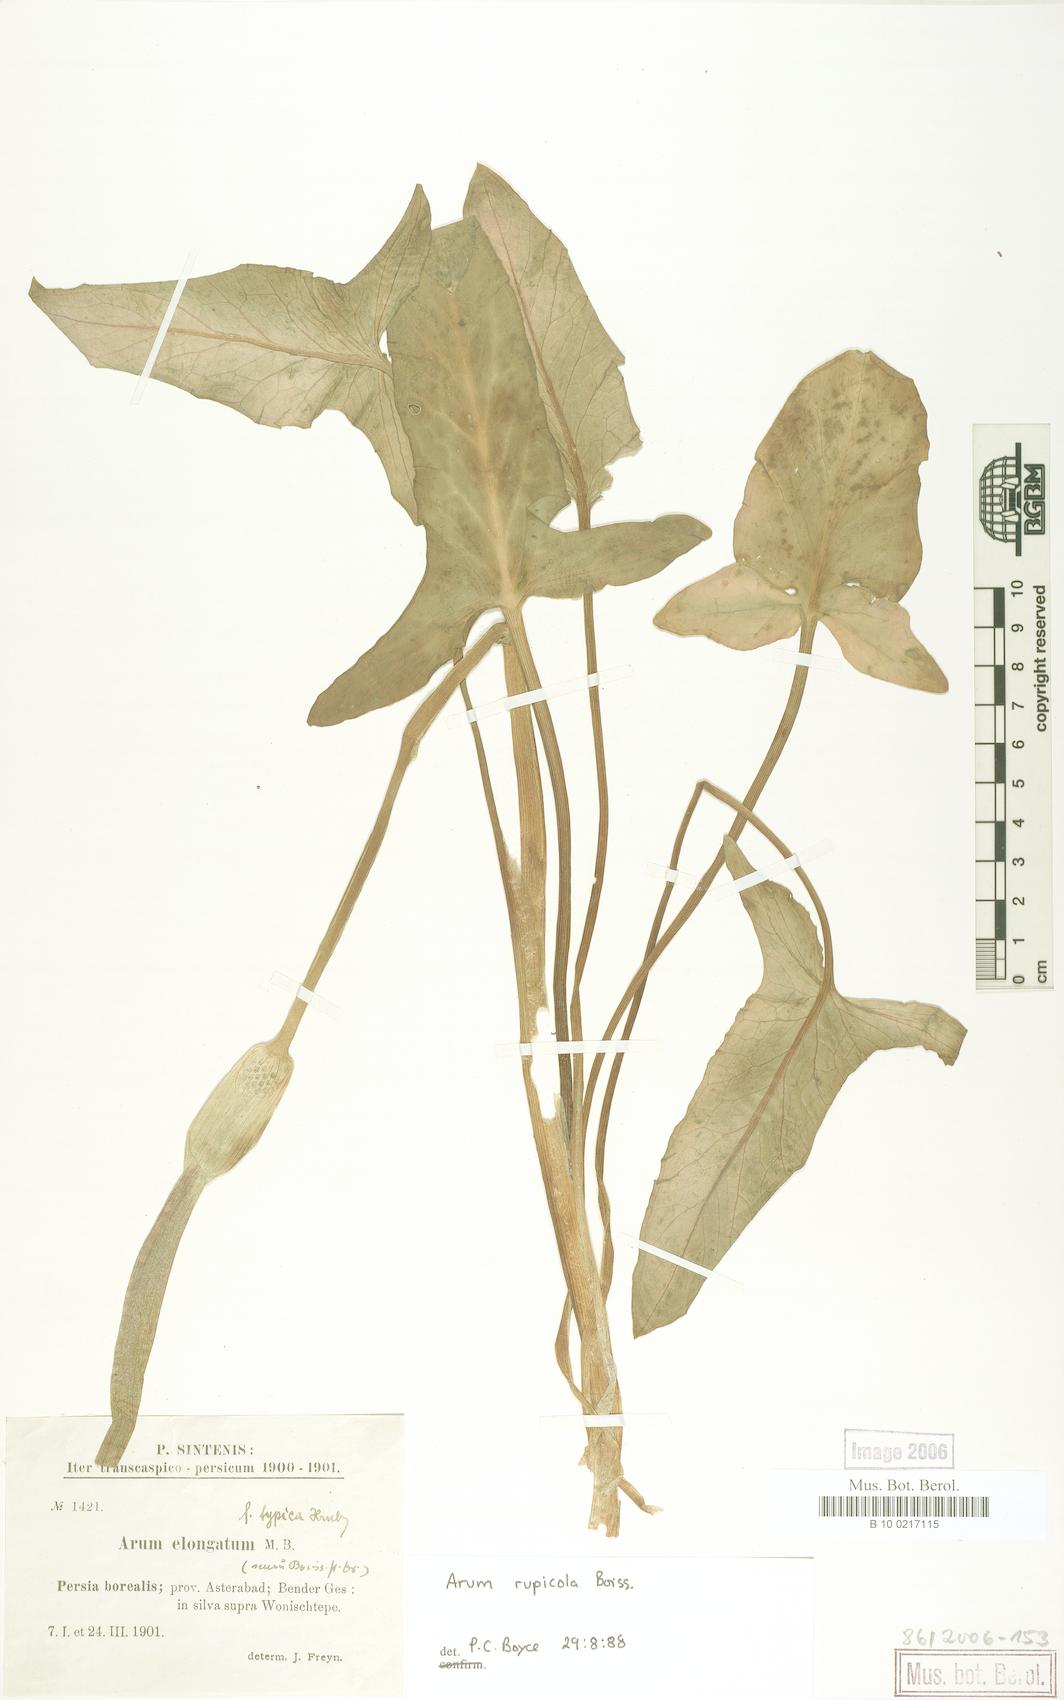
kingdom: Plantae
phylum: Tracheophyta
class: Liliopsida
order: Alismatales
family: Araceae
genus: Arum
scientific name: Arum rupicola
